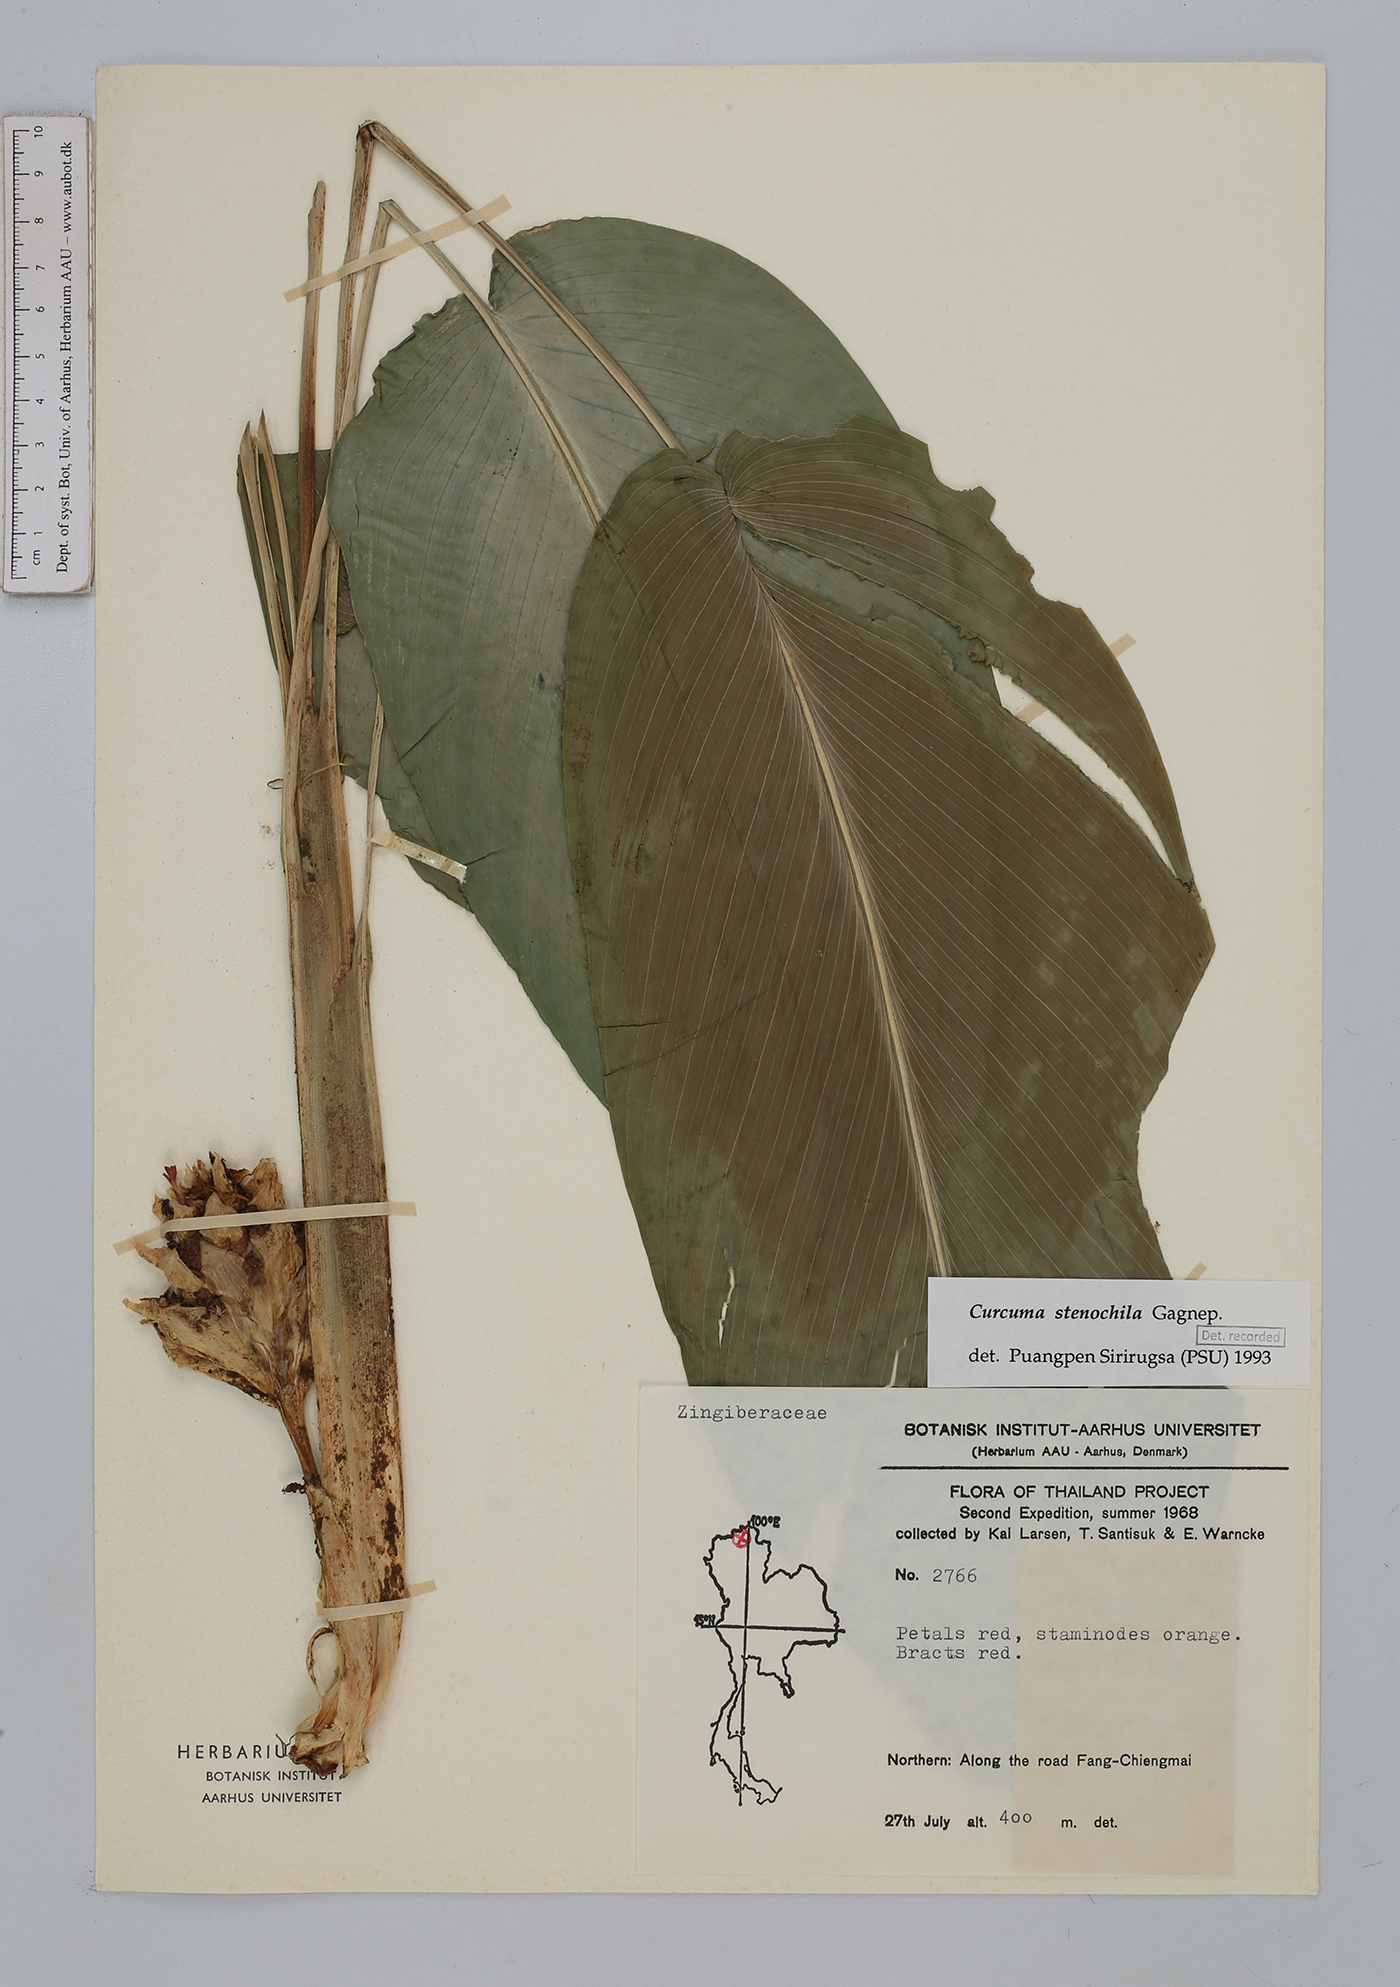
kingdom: Plantae
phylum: Tracheophyta
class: Liliopsida
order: Zingiberales
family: Zingiberaceae
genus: Curcuma
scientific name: Curcuma stenochila
